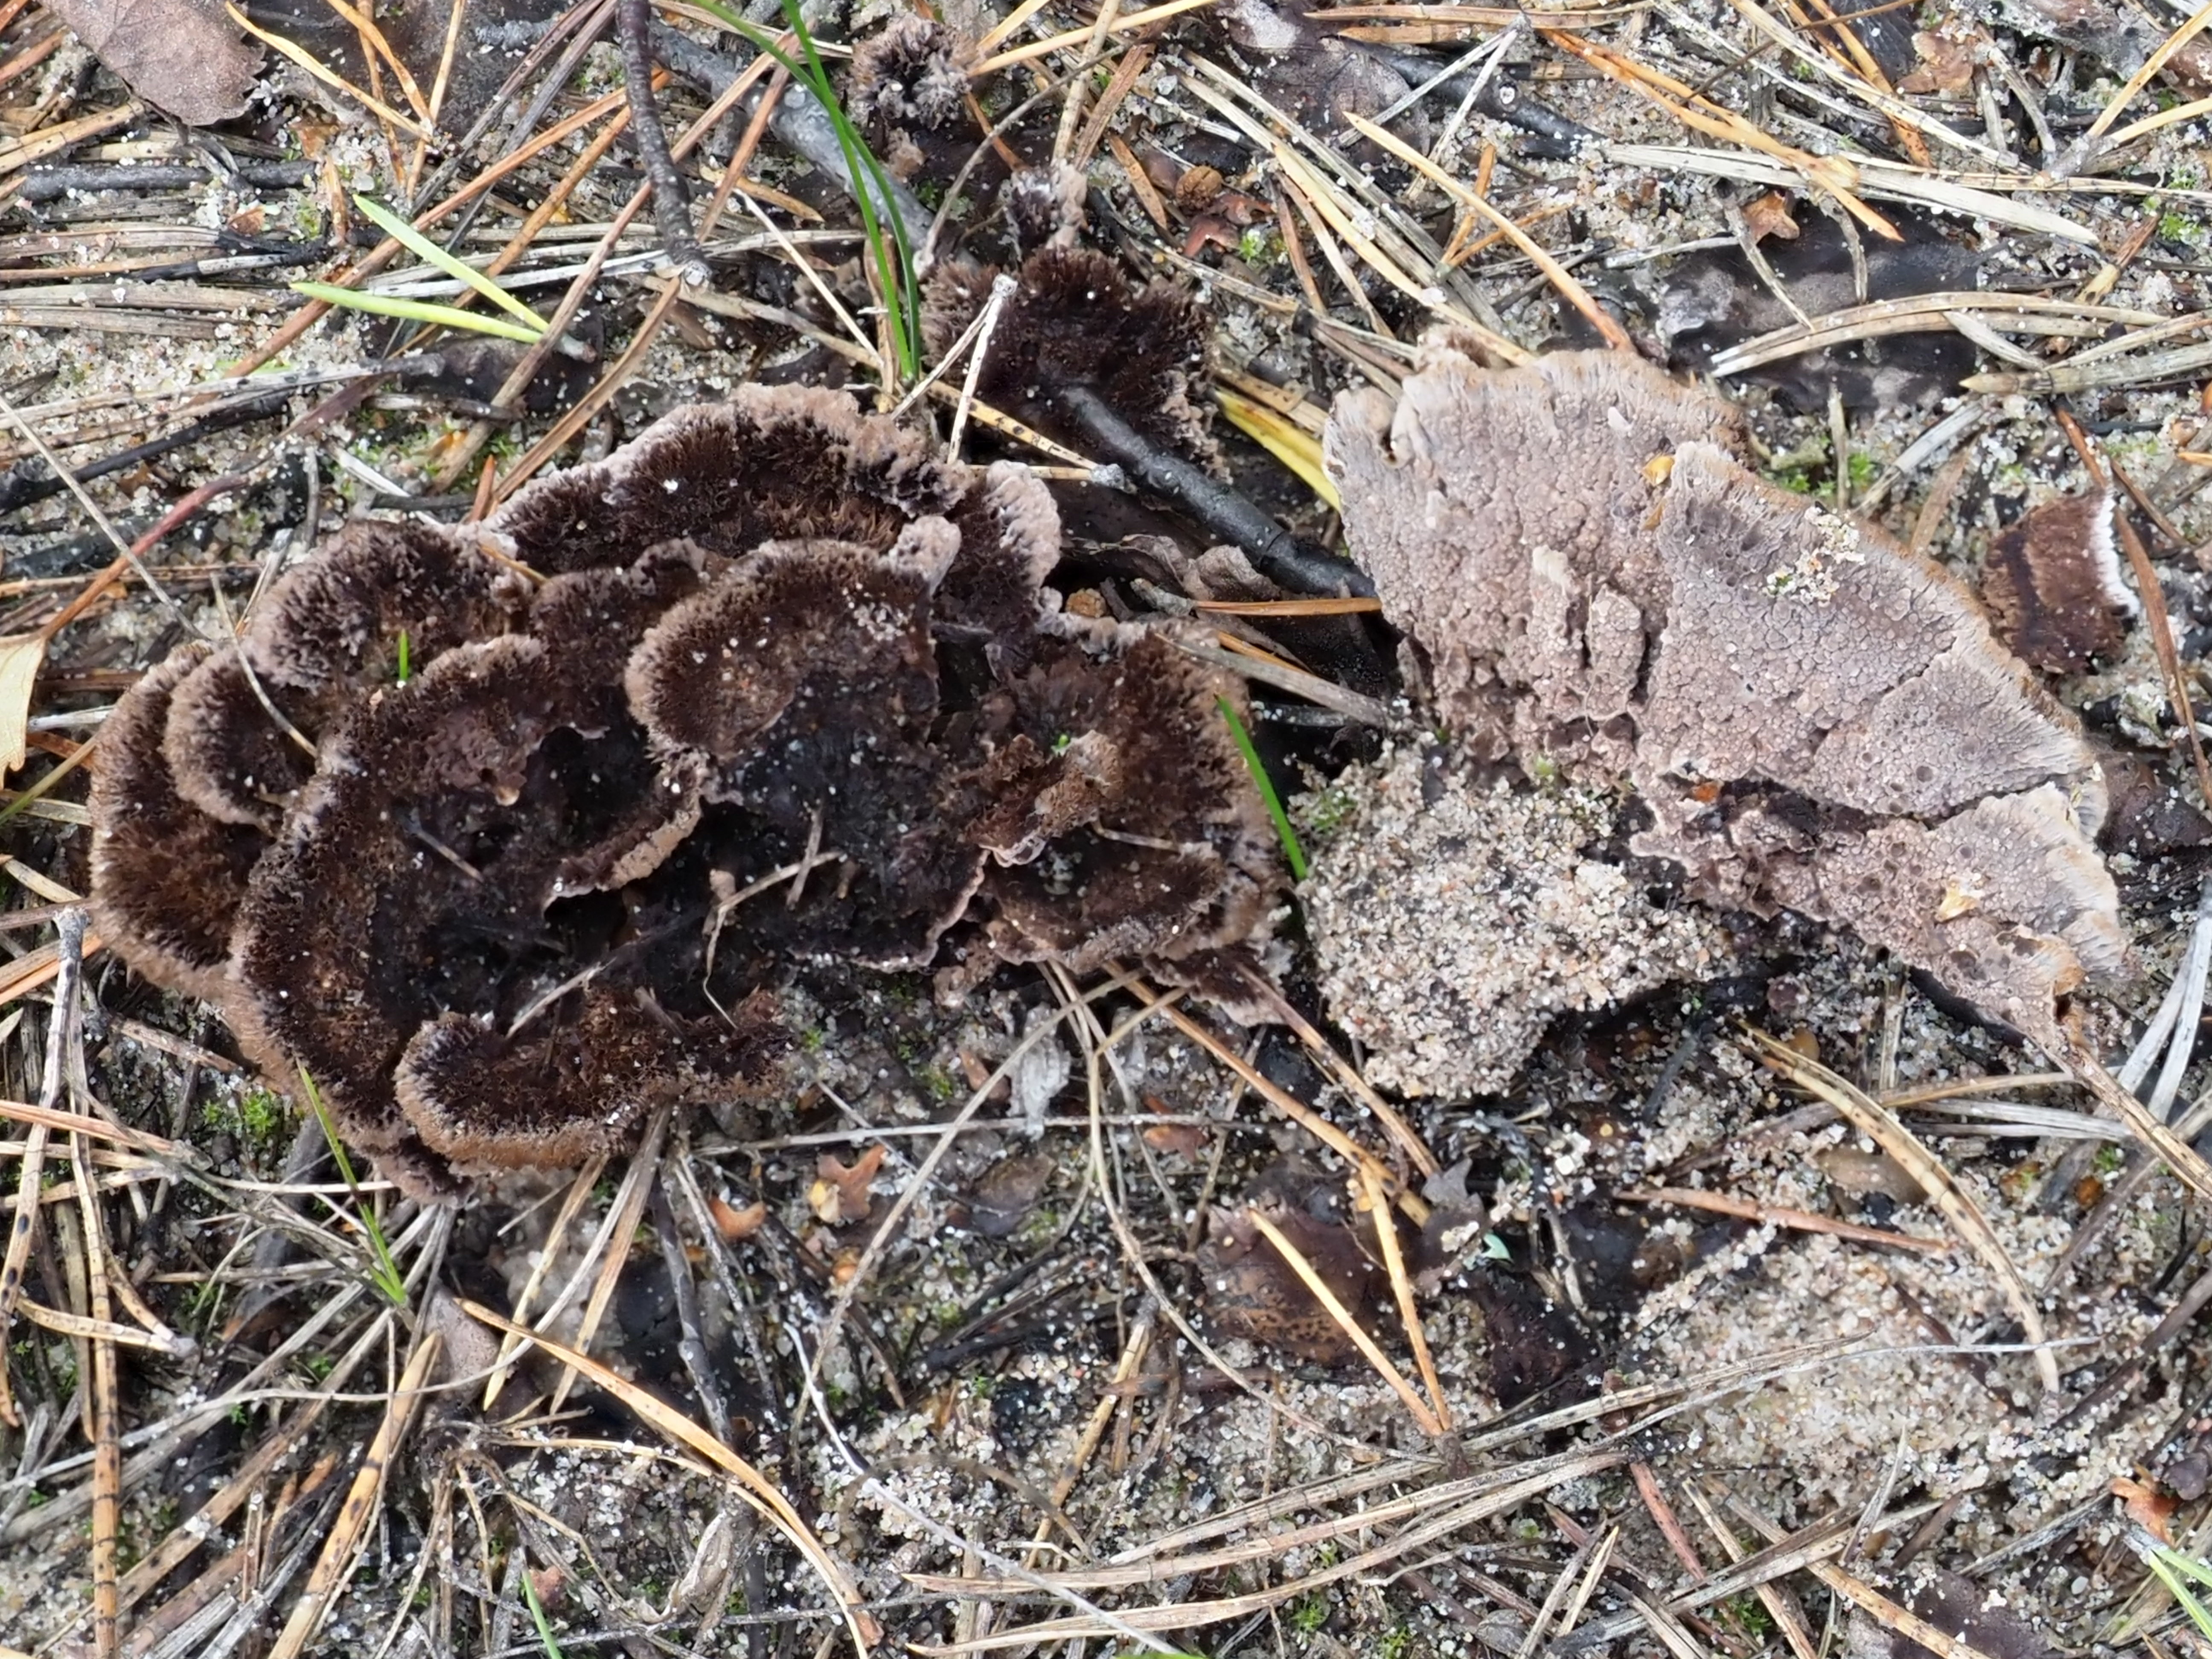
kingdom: Fungi
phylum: Basidiomycota
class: Agaricomycetes
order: Thelephorales
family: Thelephoraceae
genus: Thelephora
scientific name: Thelephora terrestris
